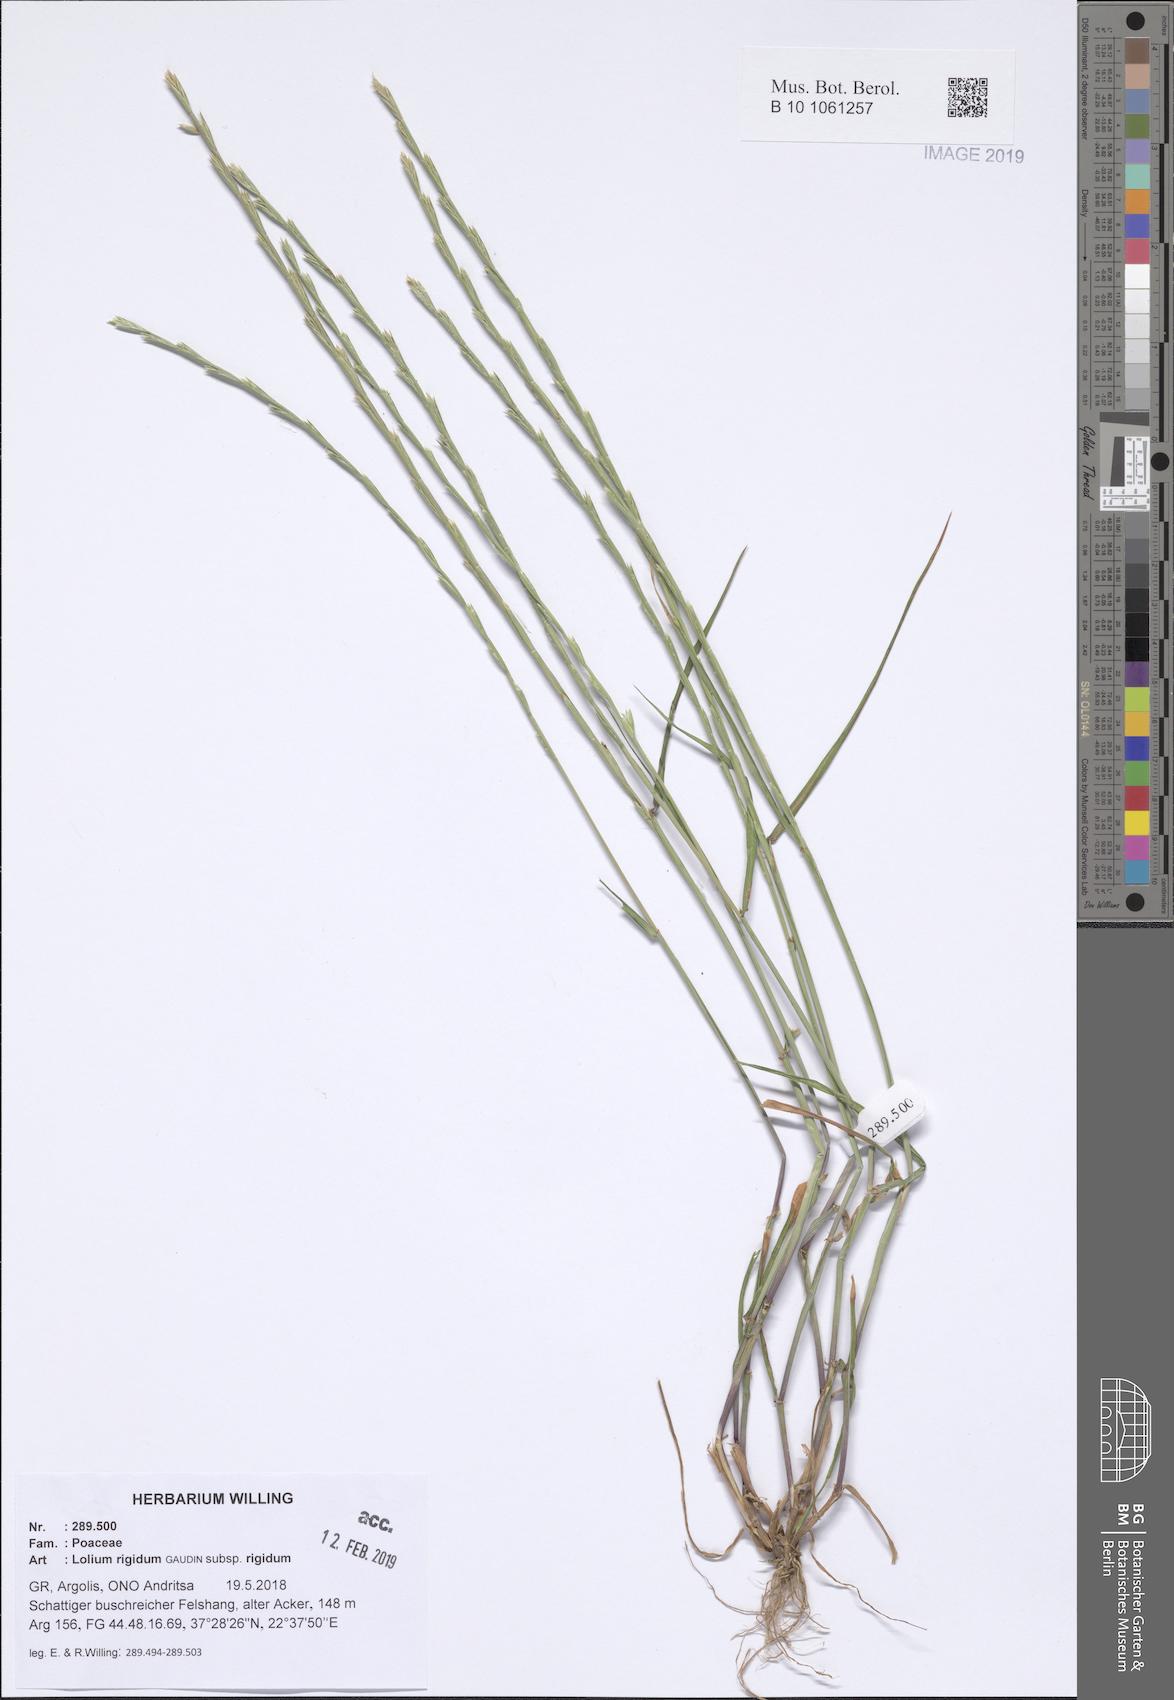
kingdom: Plantae
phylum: Tracheophyta
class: Liliopsida
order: Poales
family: Poaceae
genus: Lolium
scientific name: Lolium rigidum
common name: Wimmera ryegrass
